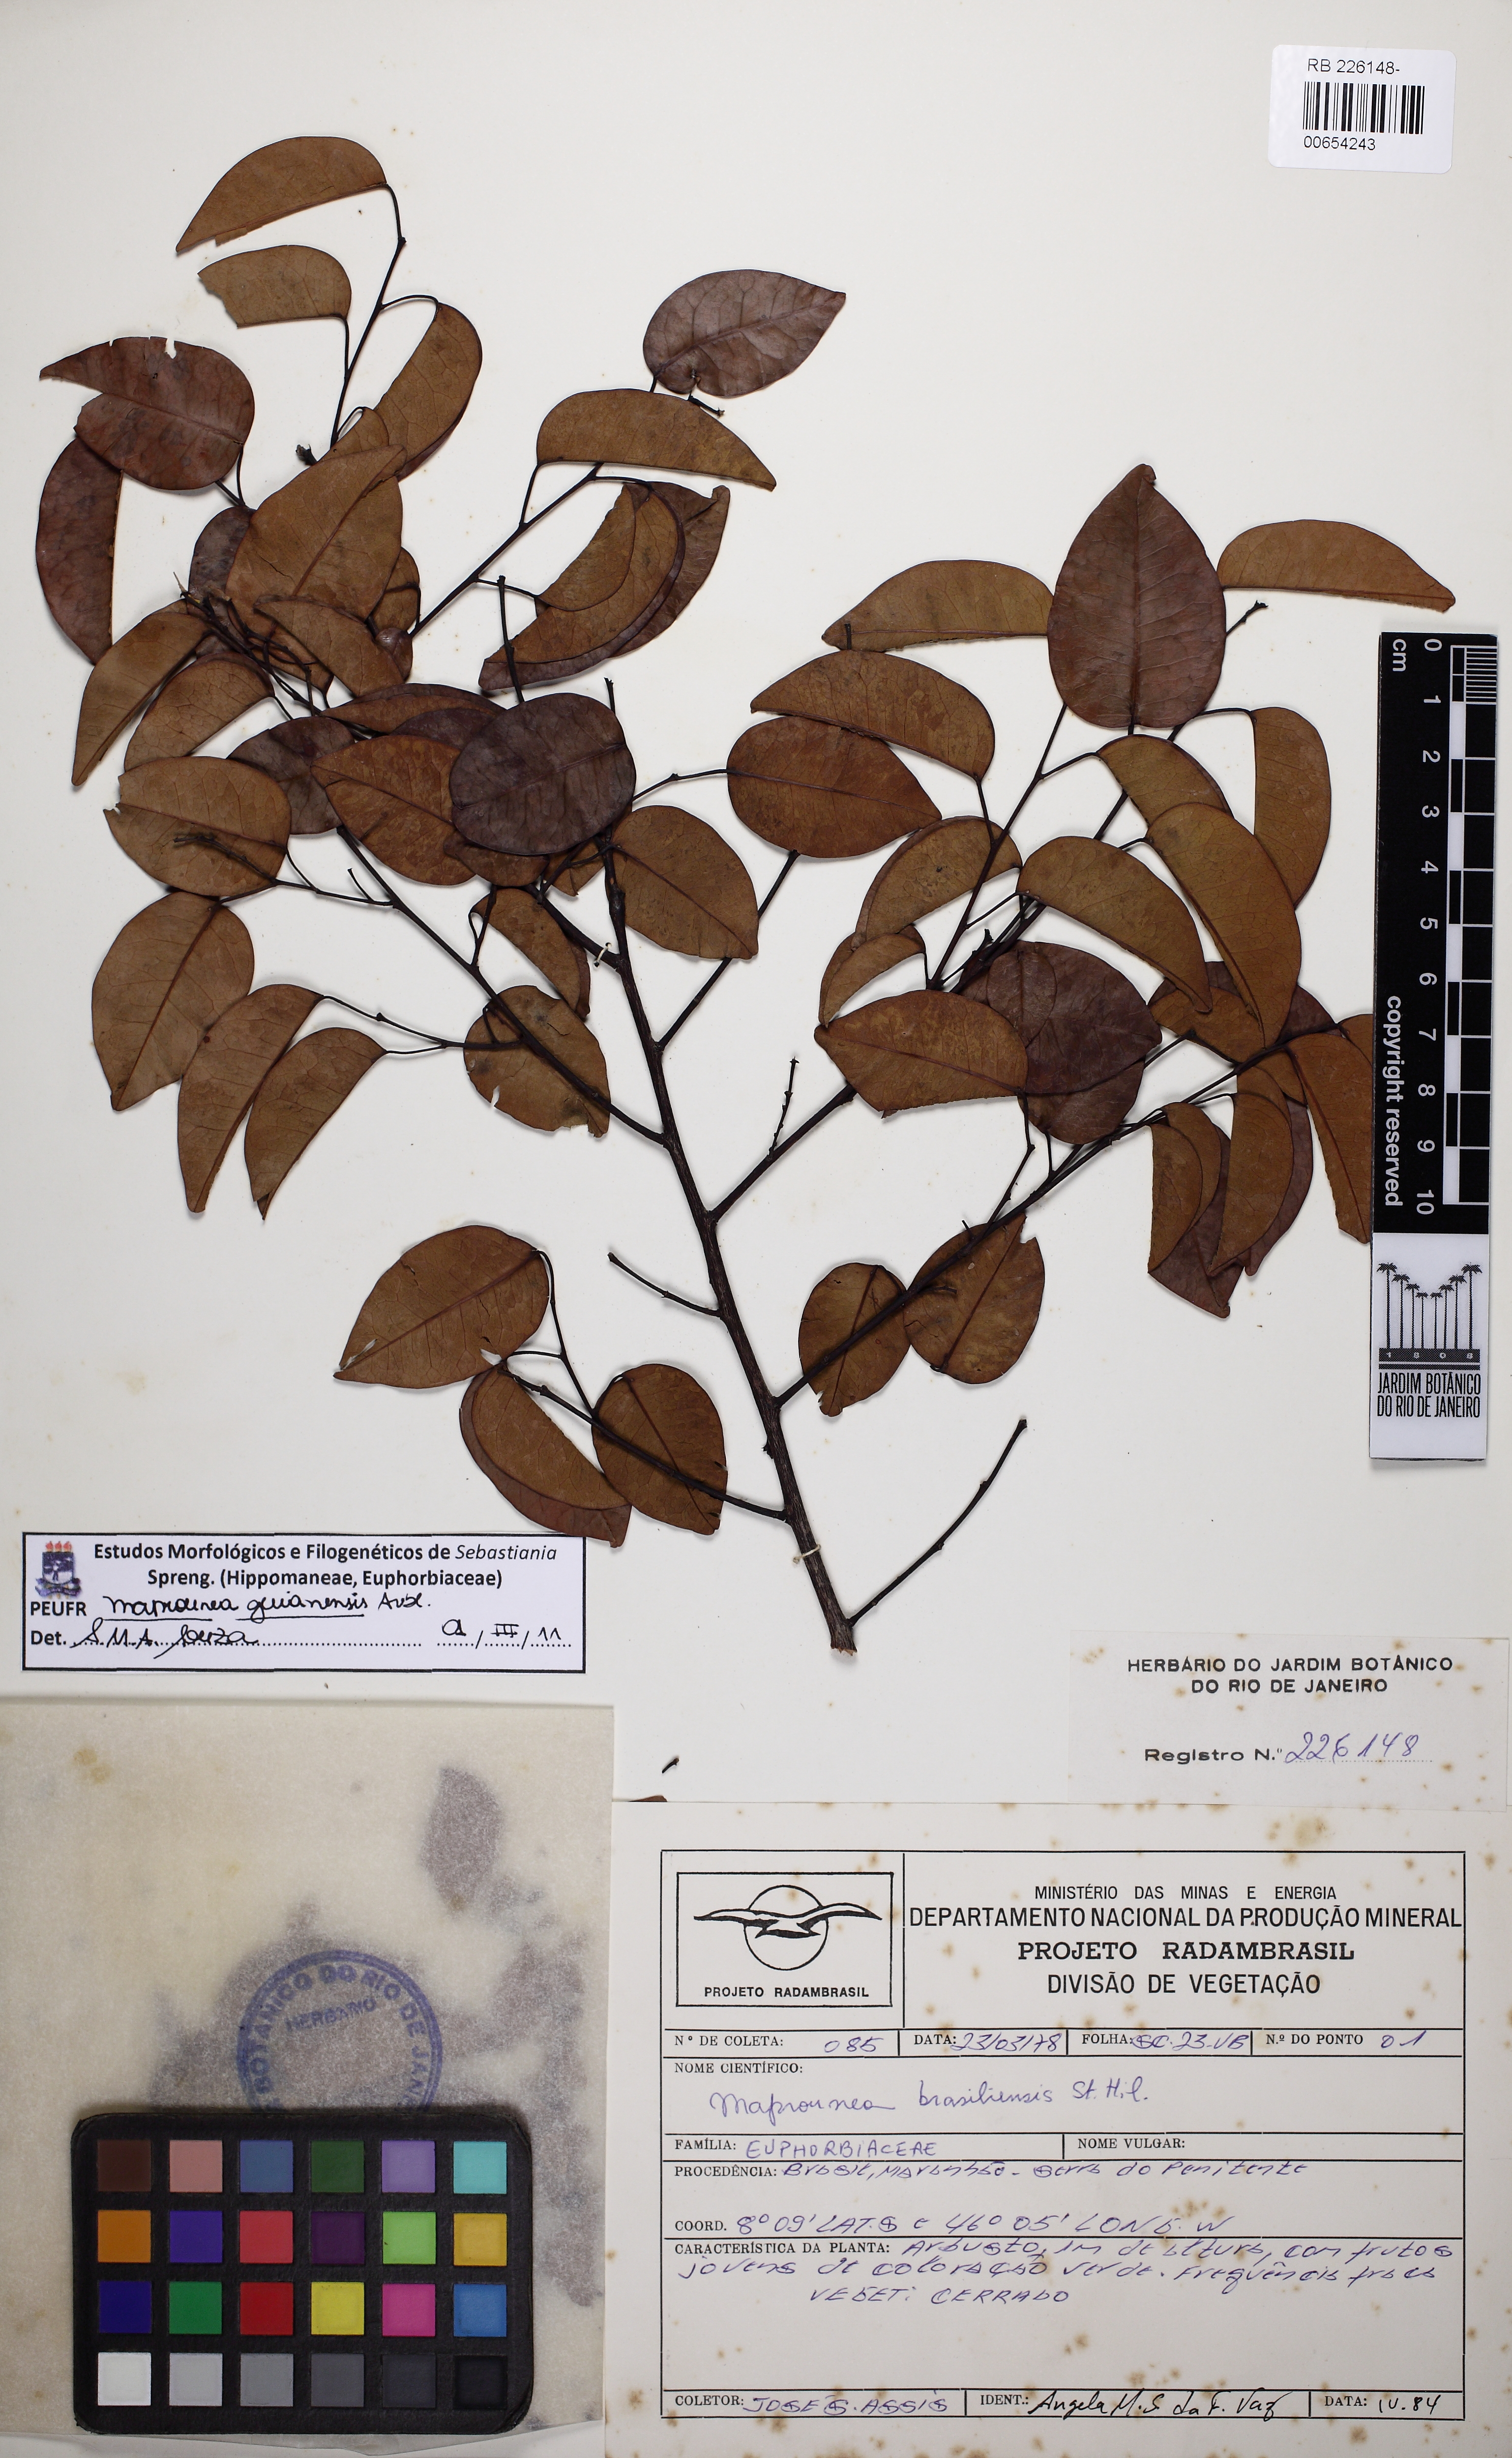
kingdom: Plantae
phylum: Tracheophyta
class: Magnoliopsida
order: Malpighiales
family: Euphorbiaceae
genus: Maprounea
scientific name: Maprounea guianensis
